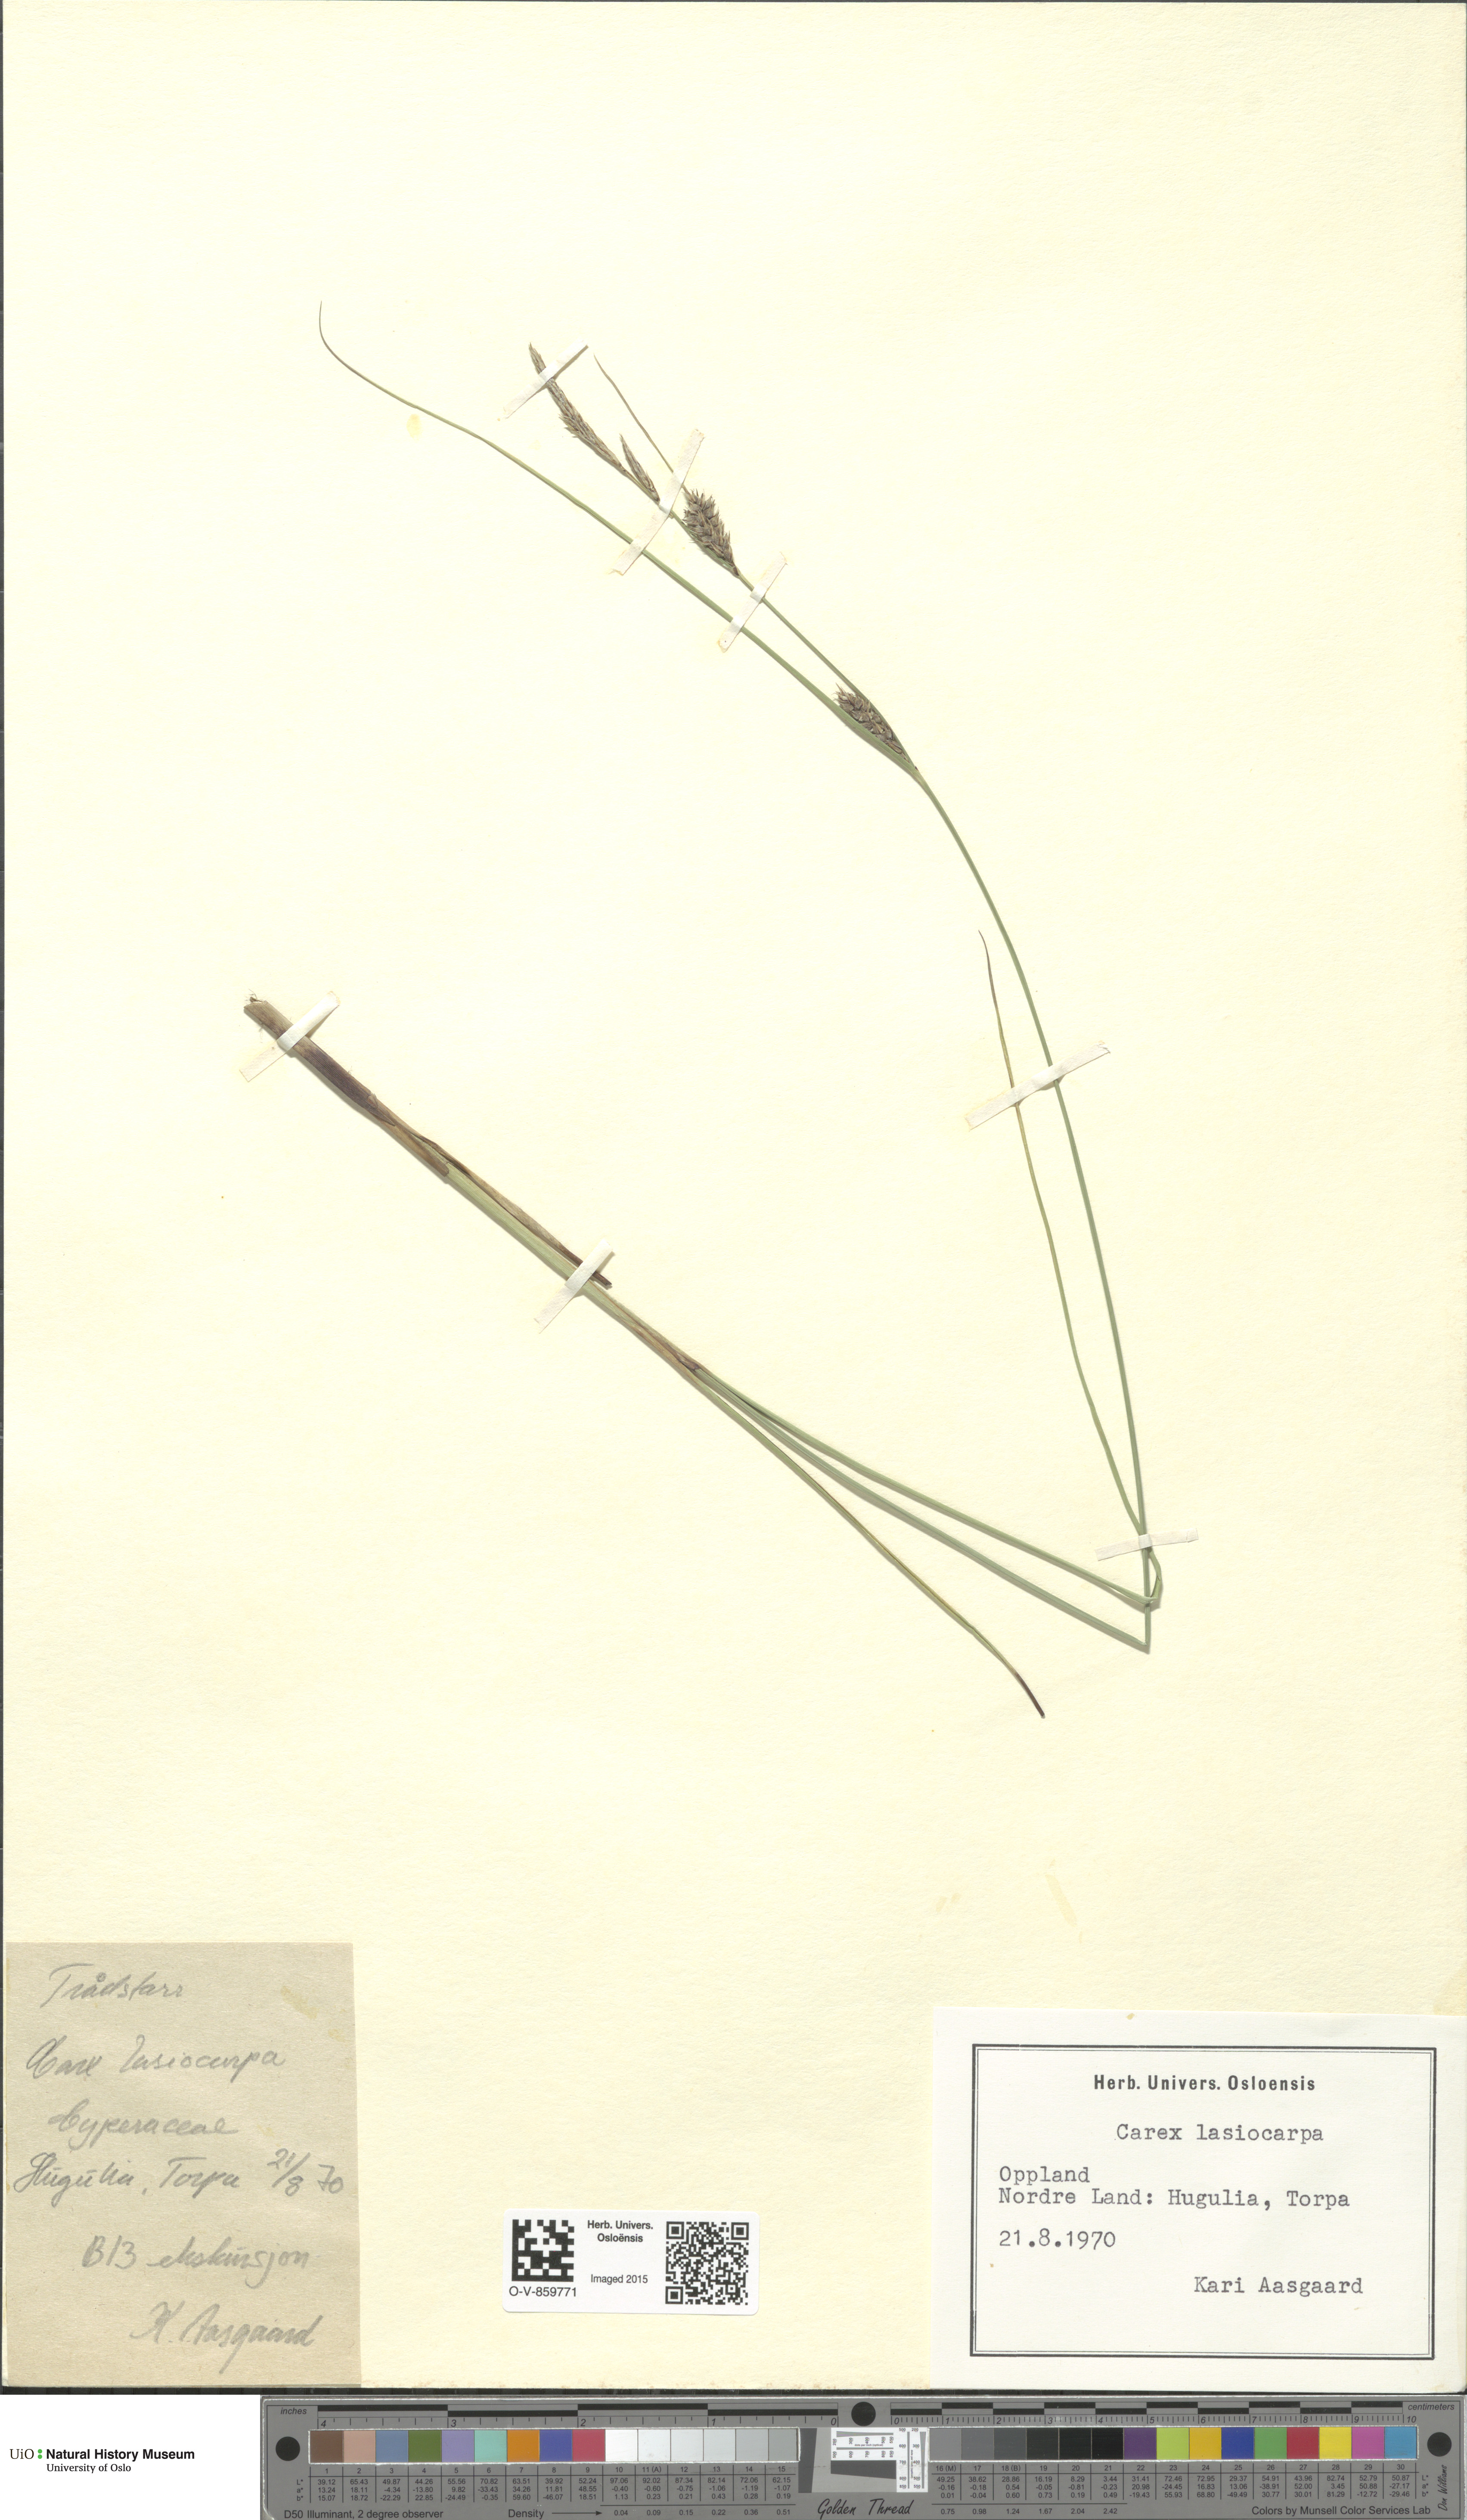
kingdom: Plantae
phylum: Tracheophyta
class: Liliopsida
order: Poales
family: Cyperaceae
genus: Carex
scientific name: Carex lasiocarpa
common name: Slender sedge
